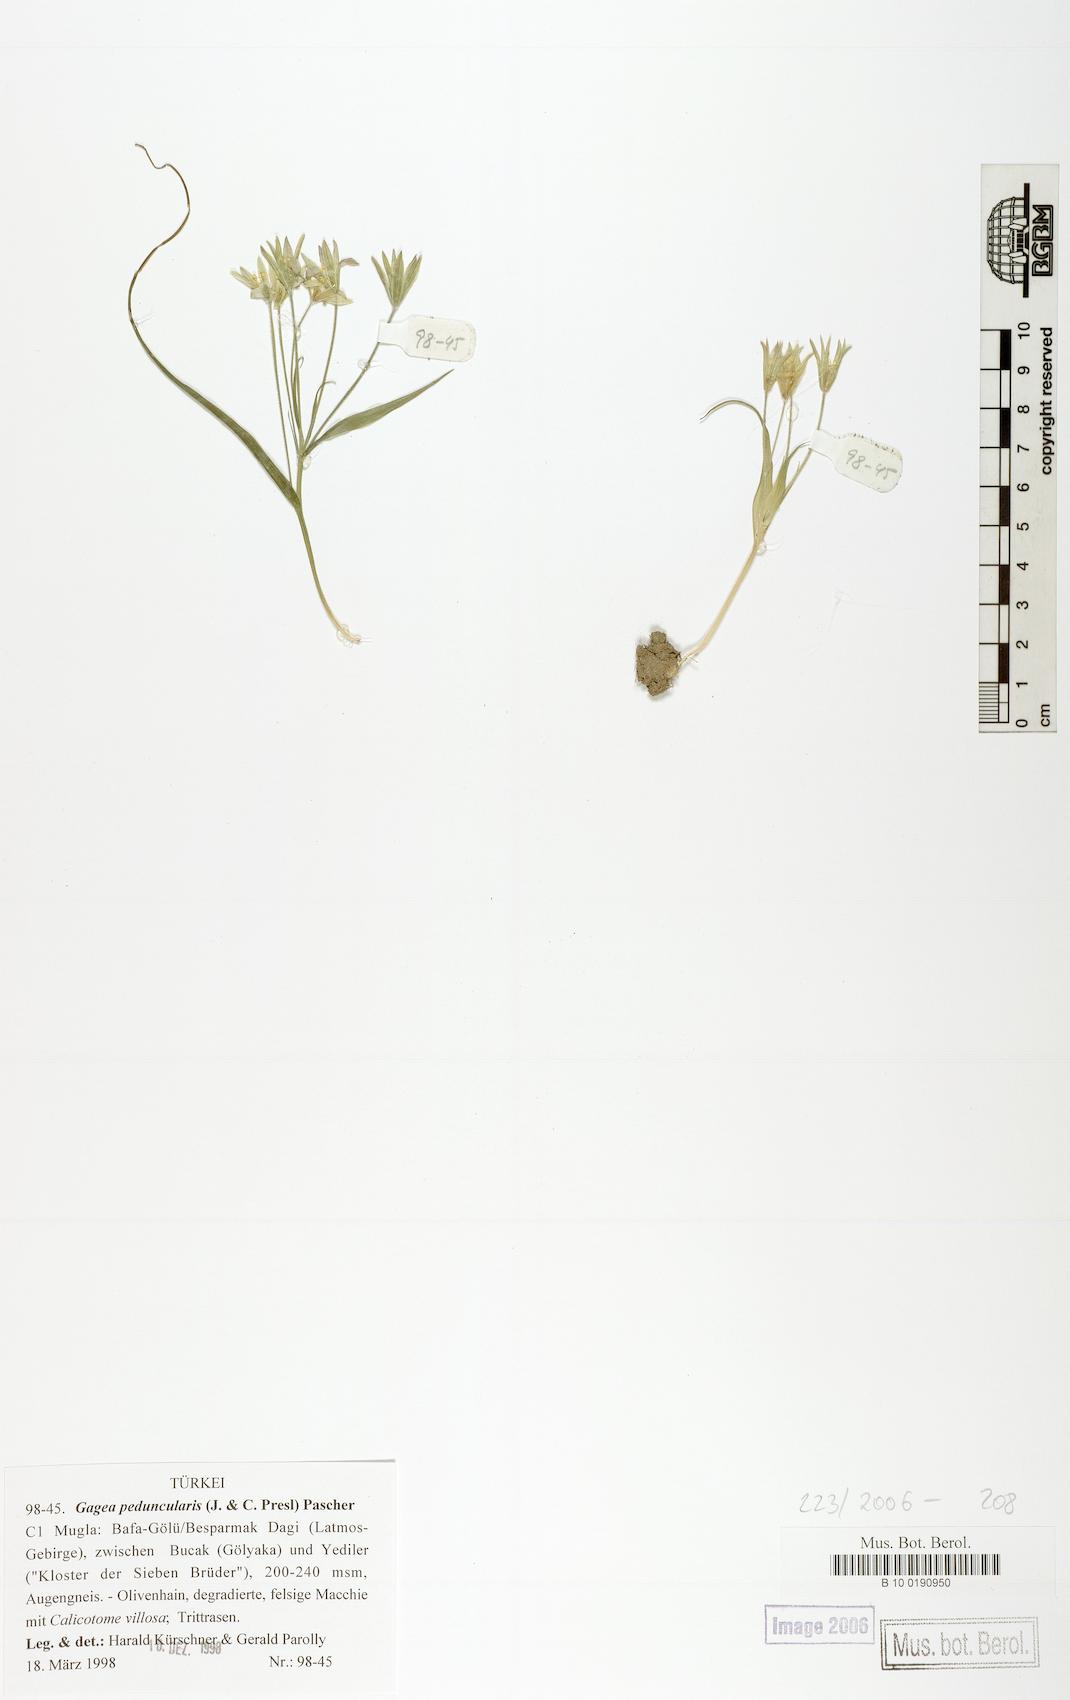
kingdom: Plantae
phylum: Tracheophyta
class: Liliopsida
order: Liliales
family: Liliaceae
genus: Gagea
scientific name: Gagea peduncularis
